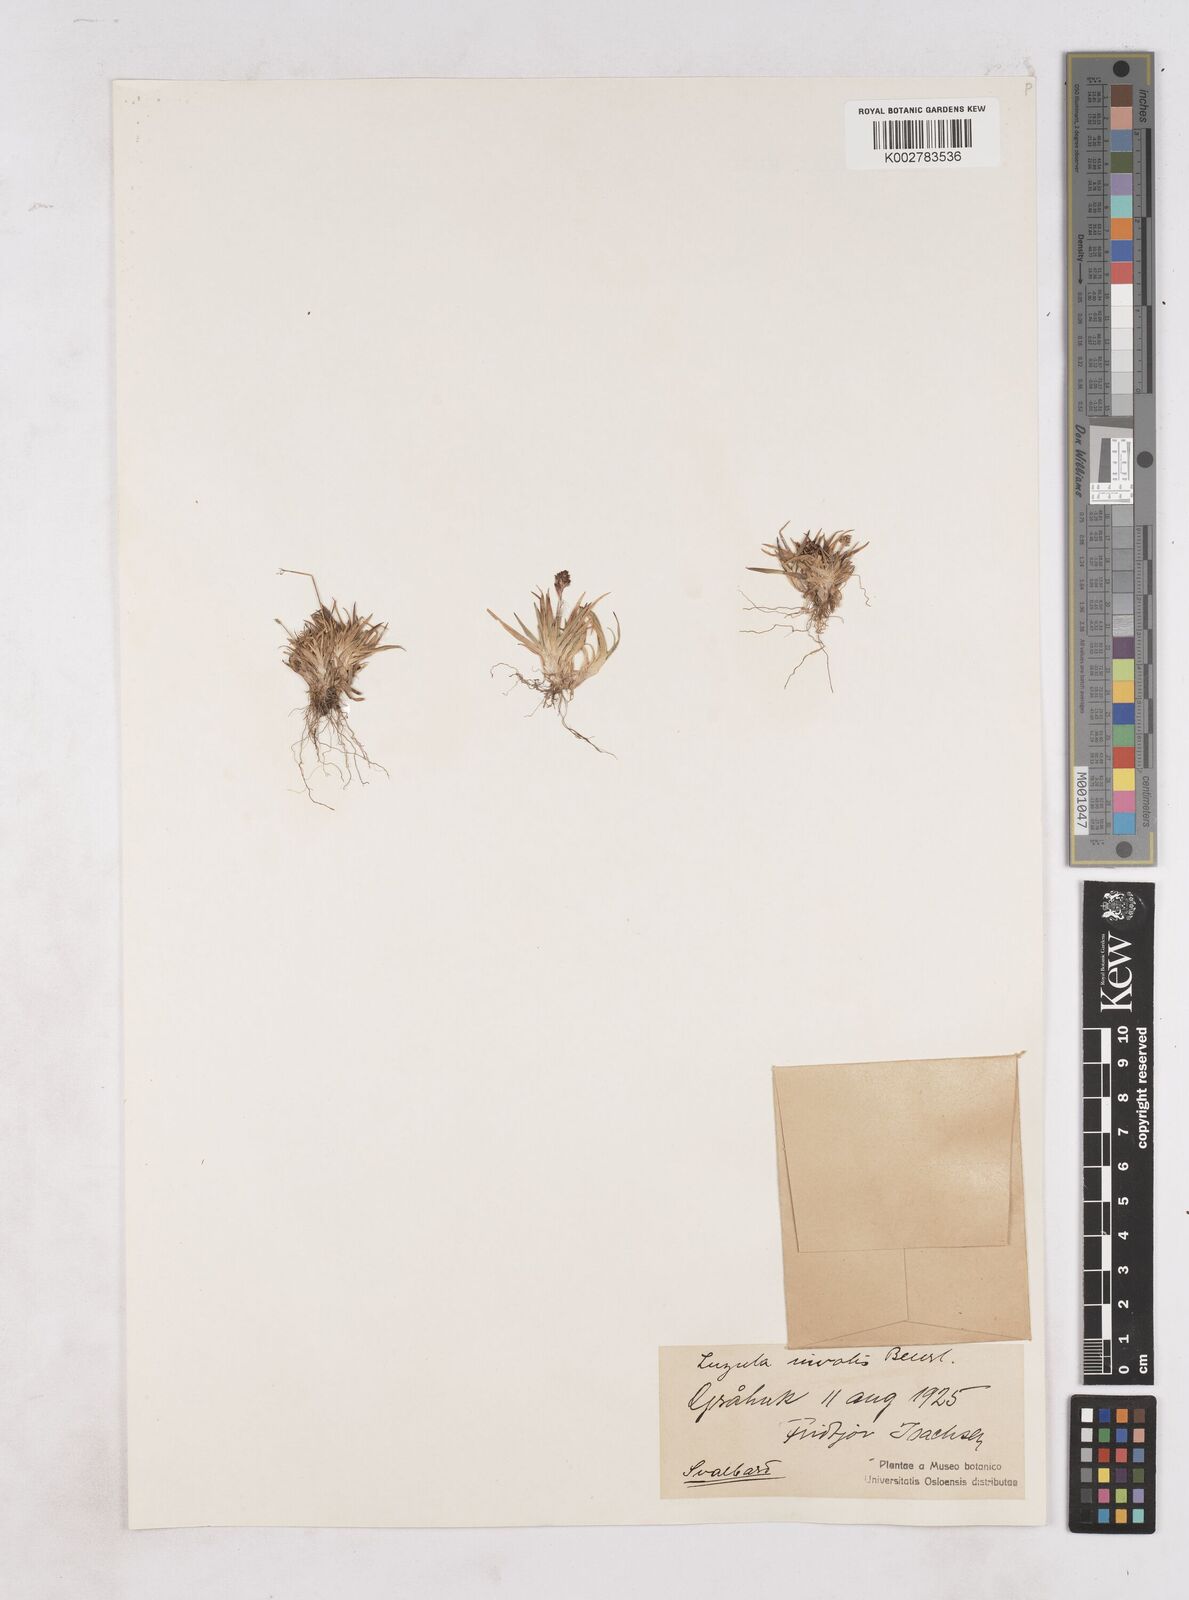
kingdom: Plantae
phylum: Tracheophyta
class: Liliopsida
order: Poales
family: Juncaceae
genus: Luzula
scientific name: Luzula nivalis
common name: Arctic woodrush
